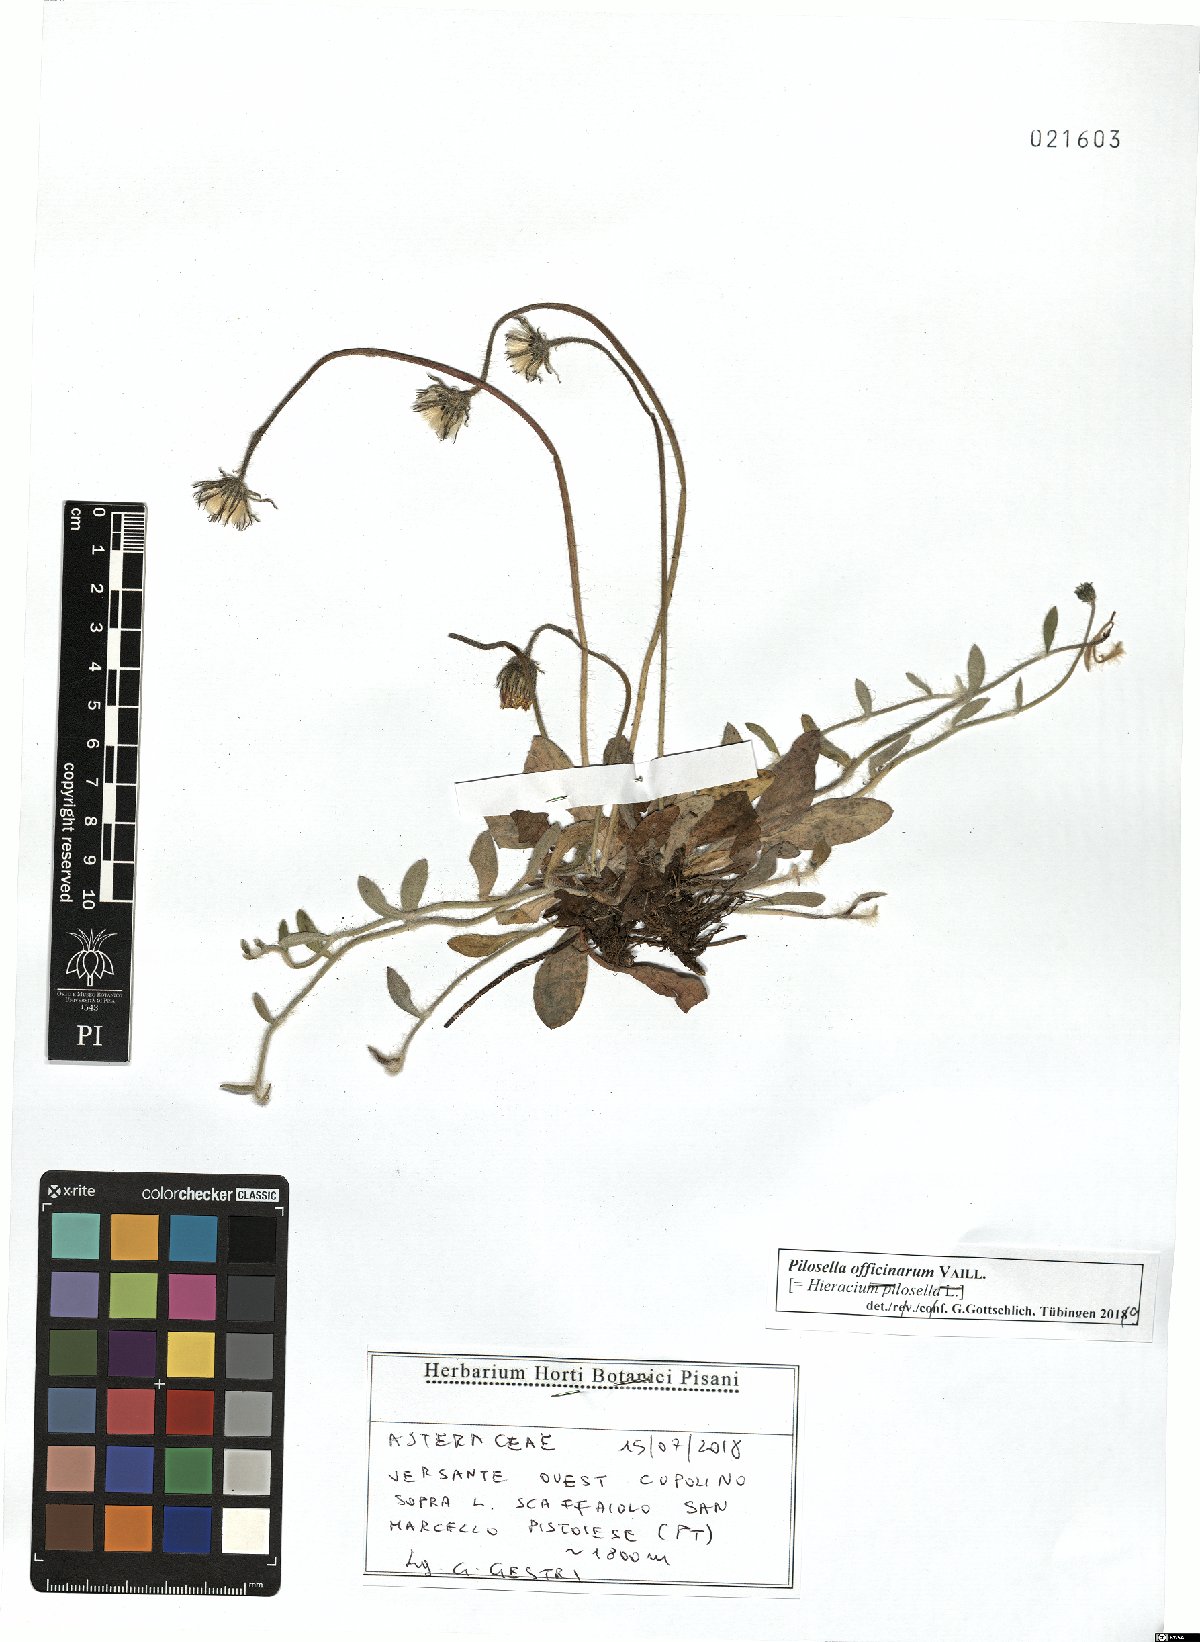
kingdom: Plantae
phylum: Tracheophyta
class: Magnoliopsida
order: Asterales
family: Asteraceae
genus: Pilosella
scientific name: Pilosella officinarum
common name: Mouse-ear hawkweed
